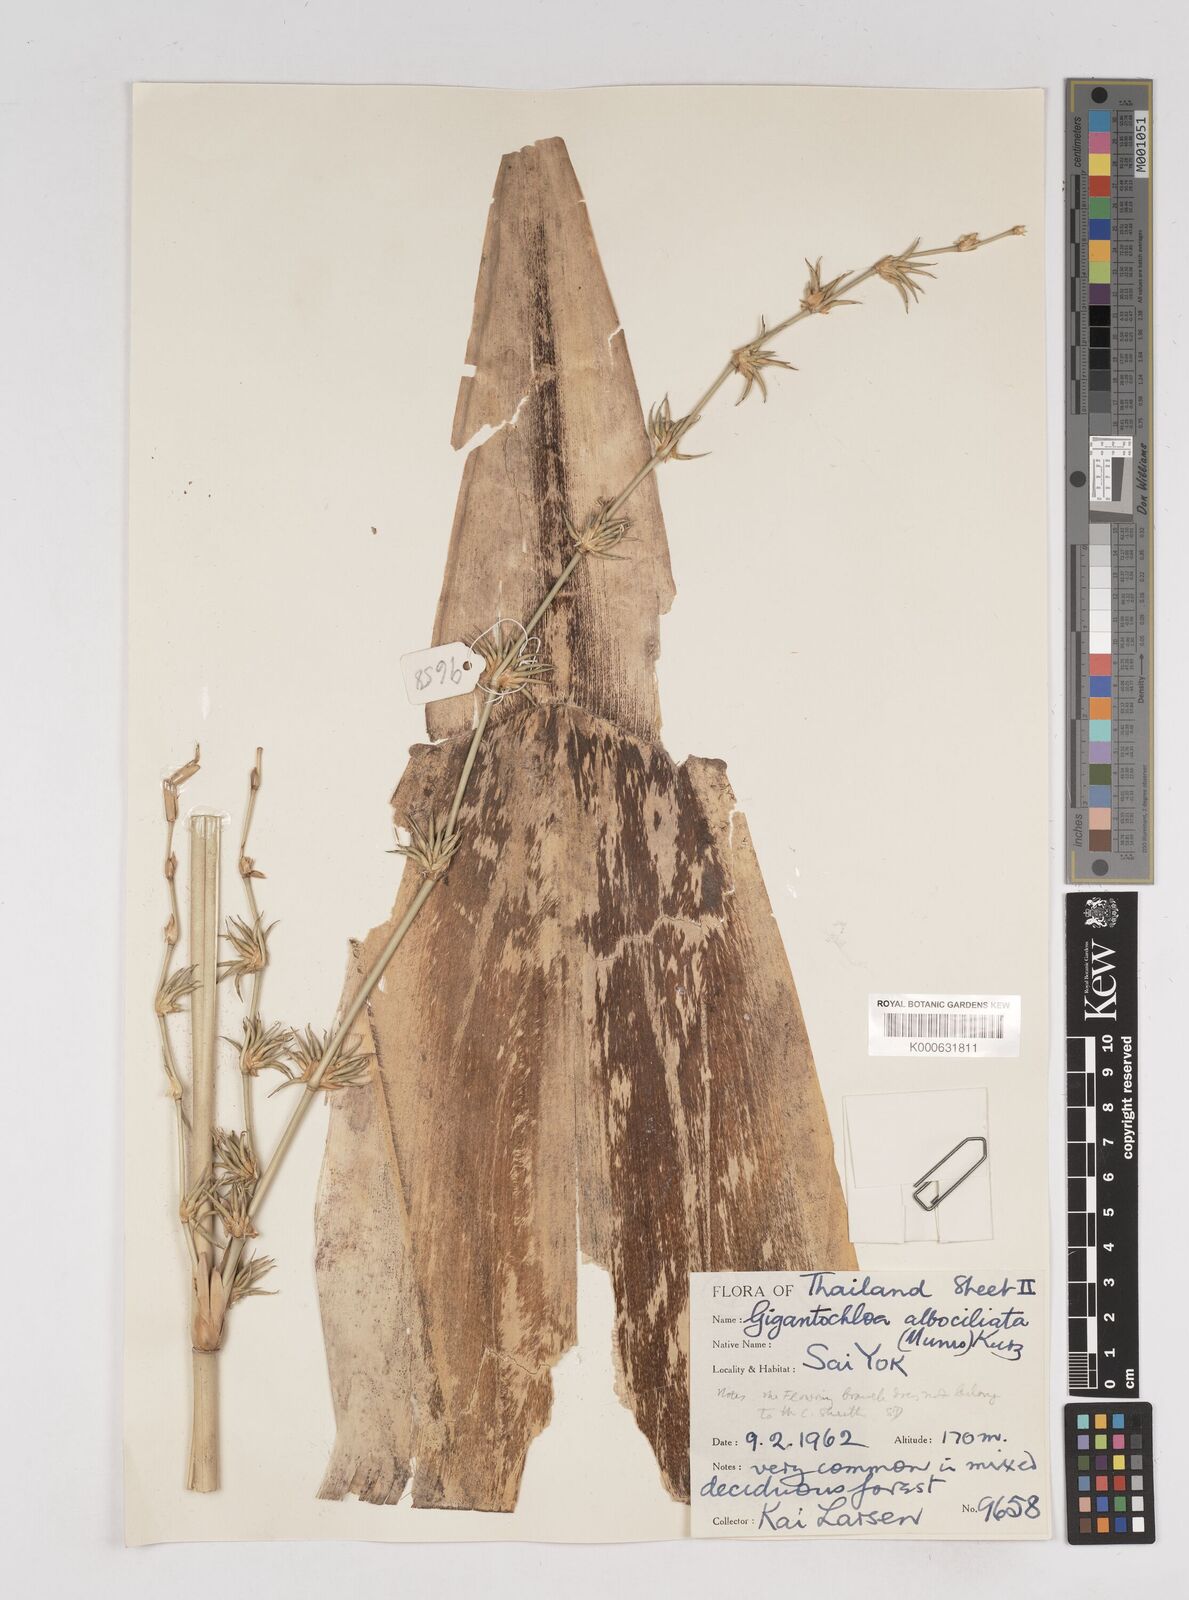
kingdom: Plantae
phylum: Tracheophyta
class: Liliopsida
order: Poales
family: Poaceae
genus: Gigantochloa
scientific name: Gigantochloa
